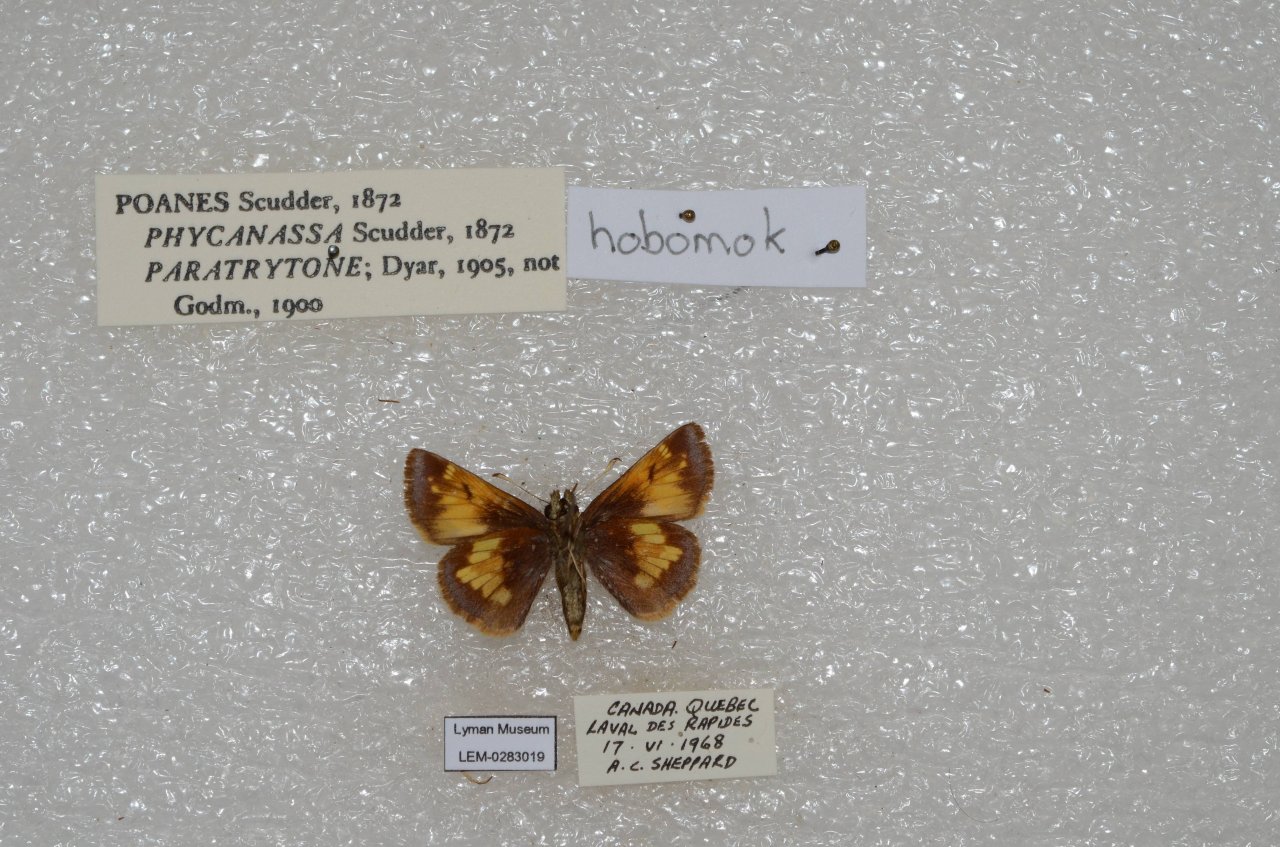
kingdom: Animalia
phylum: Arthropoda
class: Insecta
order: Lepidoptera
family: Hesperiidae
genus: Lon
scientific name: Lon hobomok
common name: Hobomok Skipper
